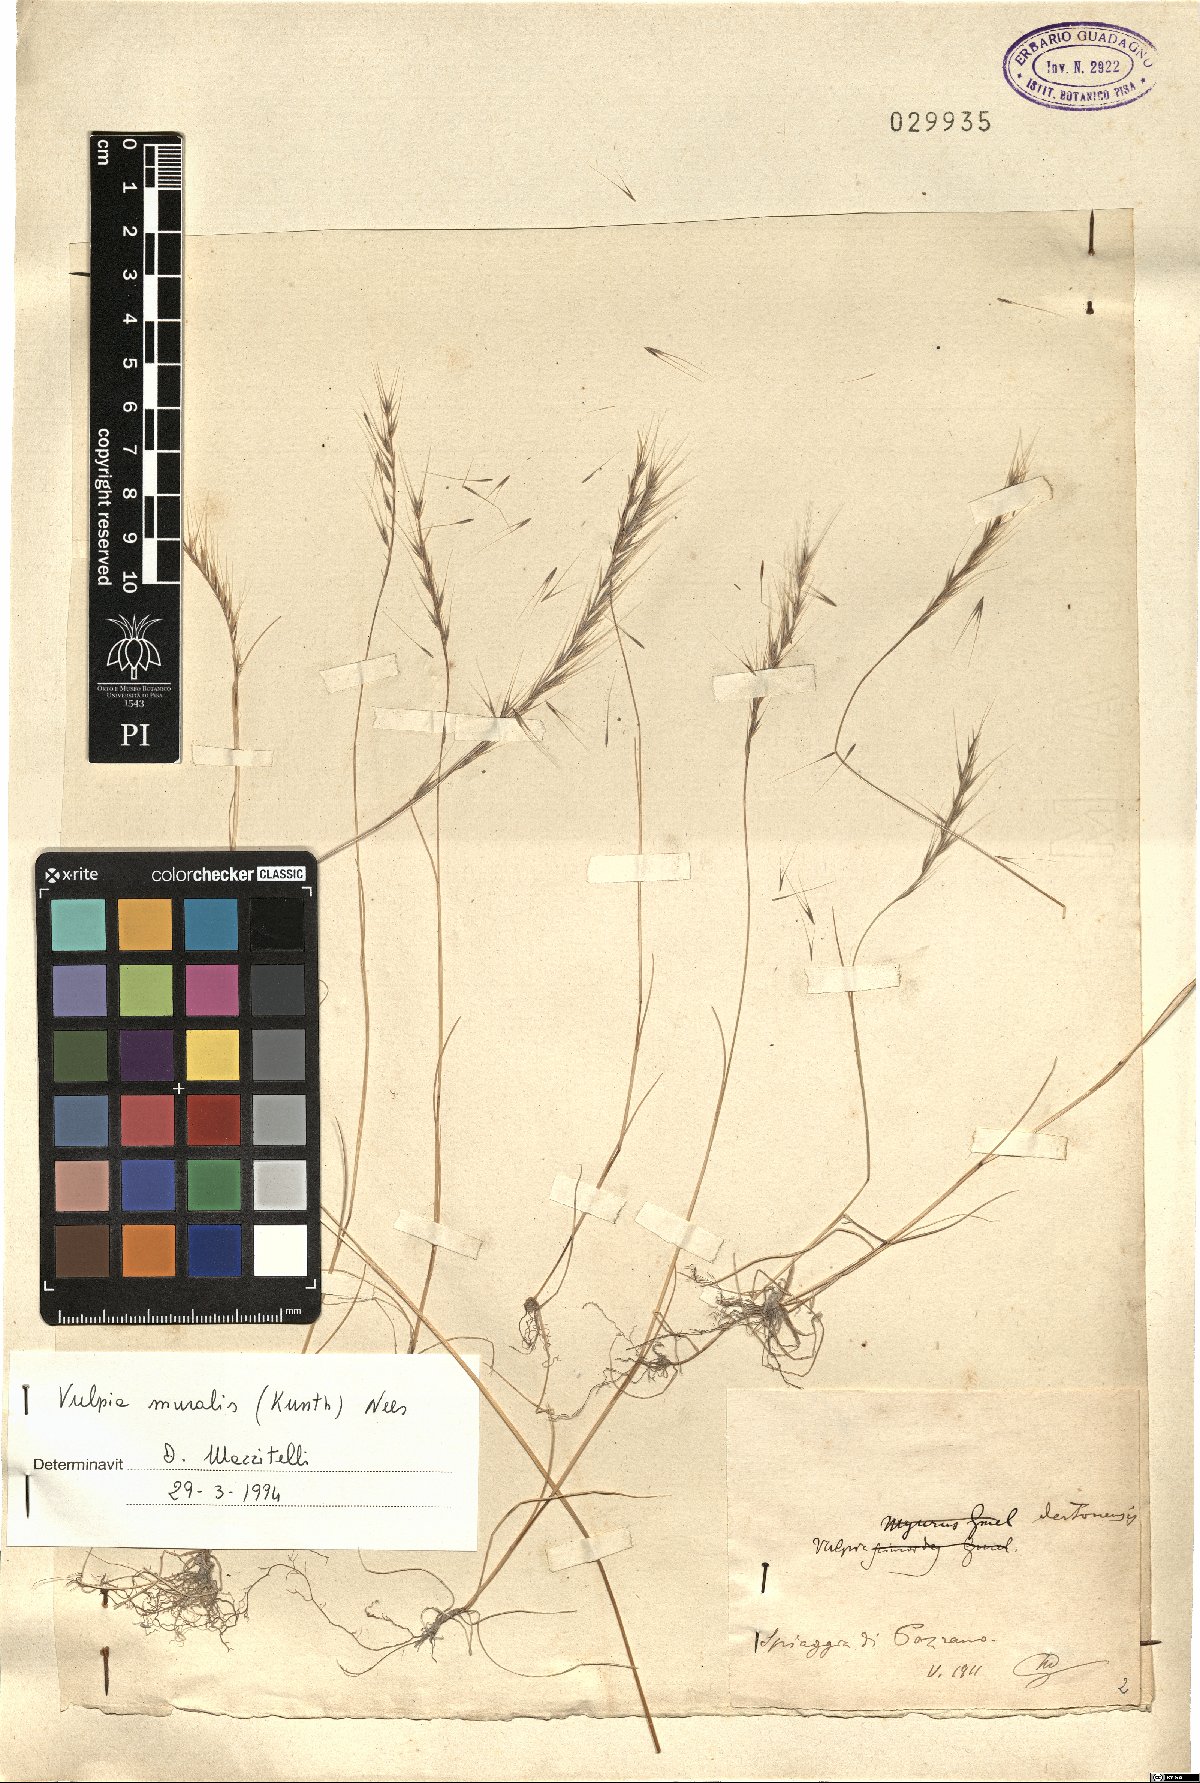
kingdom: Plantae
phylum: Tracheophyta
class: Liliopsida
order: Poales
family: Poaceae
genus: Festuca
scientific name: Festuca muralis
